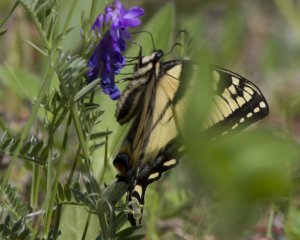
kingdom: Animalia
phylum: Arthropoda
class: Insecta
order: Lepidoptera
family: Papilionidae
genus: Pterourus
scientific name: Pterourus canadensis
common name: Canadian Tiger Swallowtail
